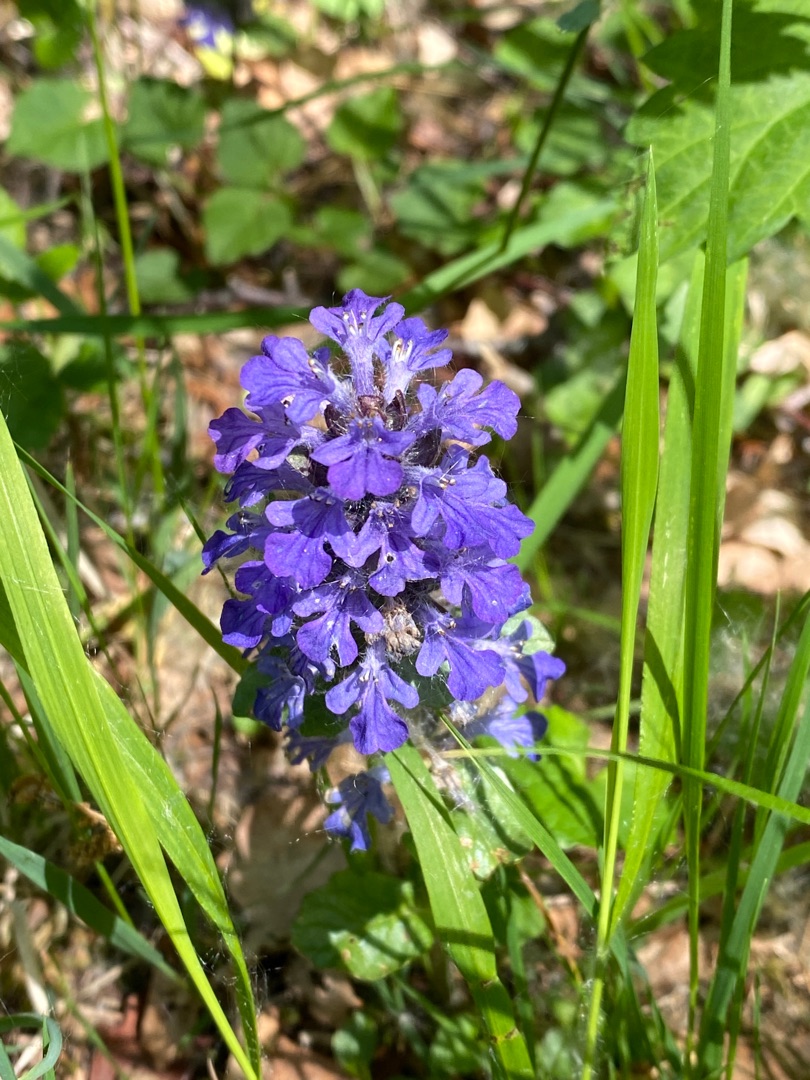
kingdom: Plantae
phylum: Tracheophyta
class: Magnoliopsida
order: Lamiales
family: Lamiaceae
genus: Ajuga
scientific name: Ajuga reptans
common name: Krybende læbeløs
